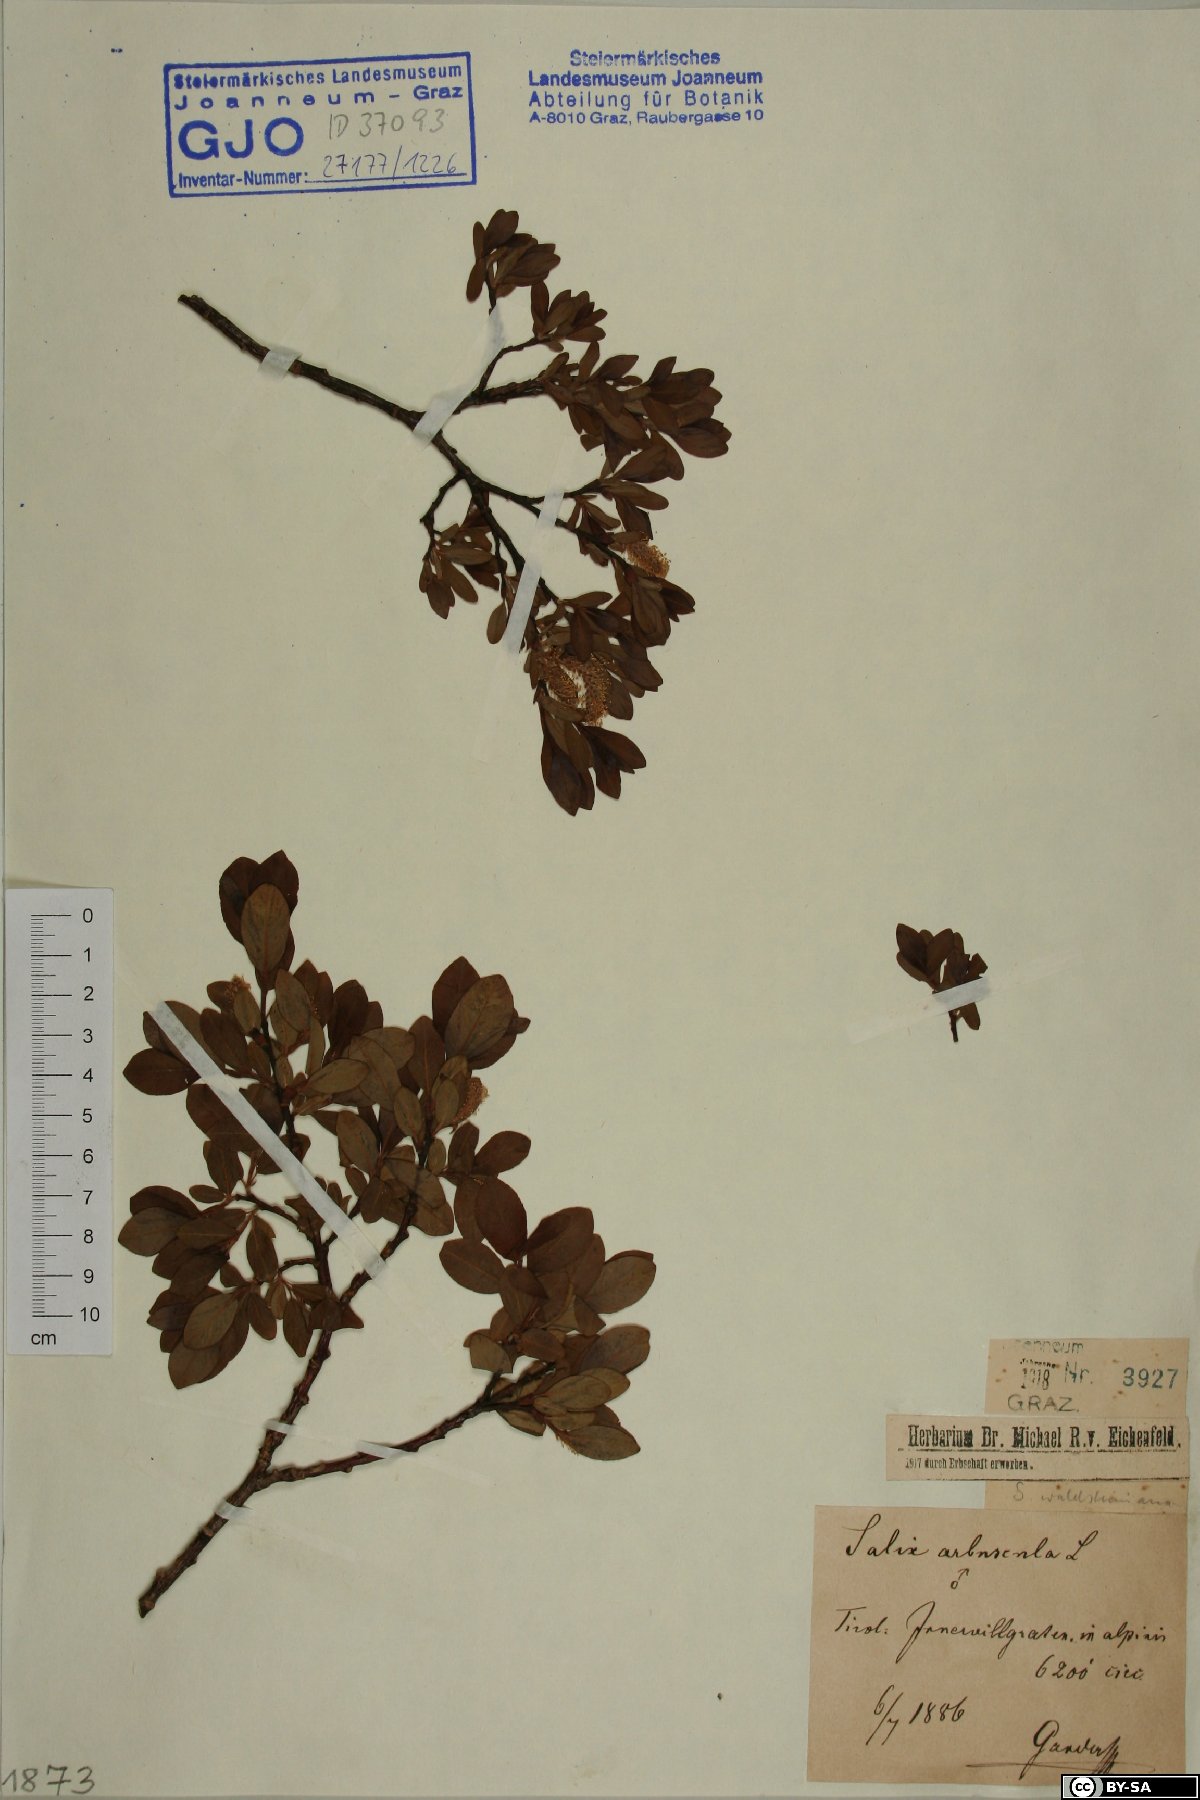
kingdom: Plantae
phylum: Tracheophyta
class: Magnoliopsida
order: Malpighiales
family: Salicaceae
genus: Salix
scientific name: Salix waldsteiniana
